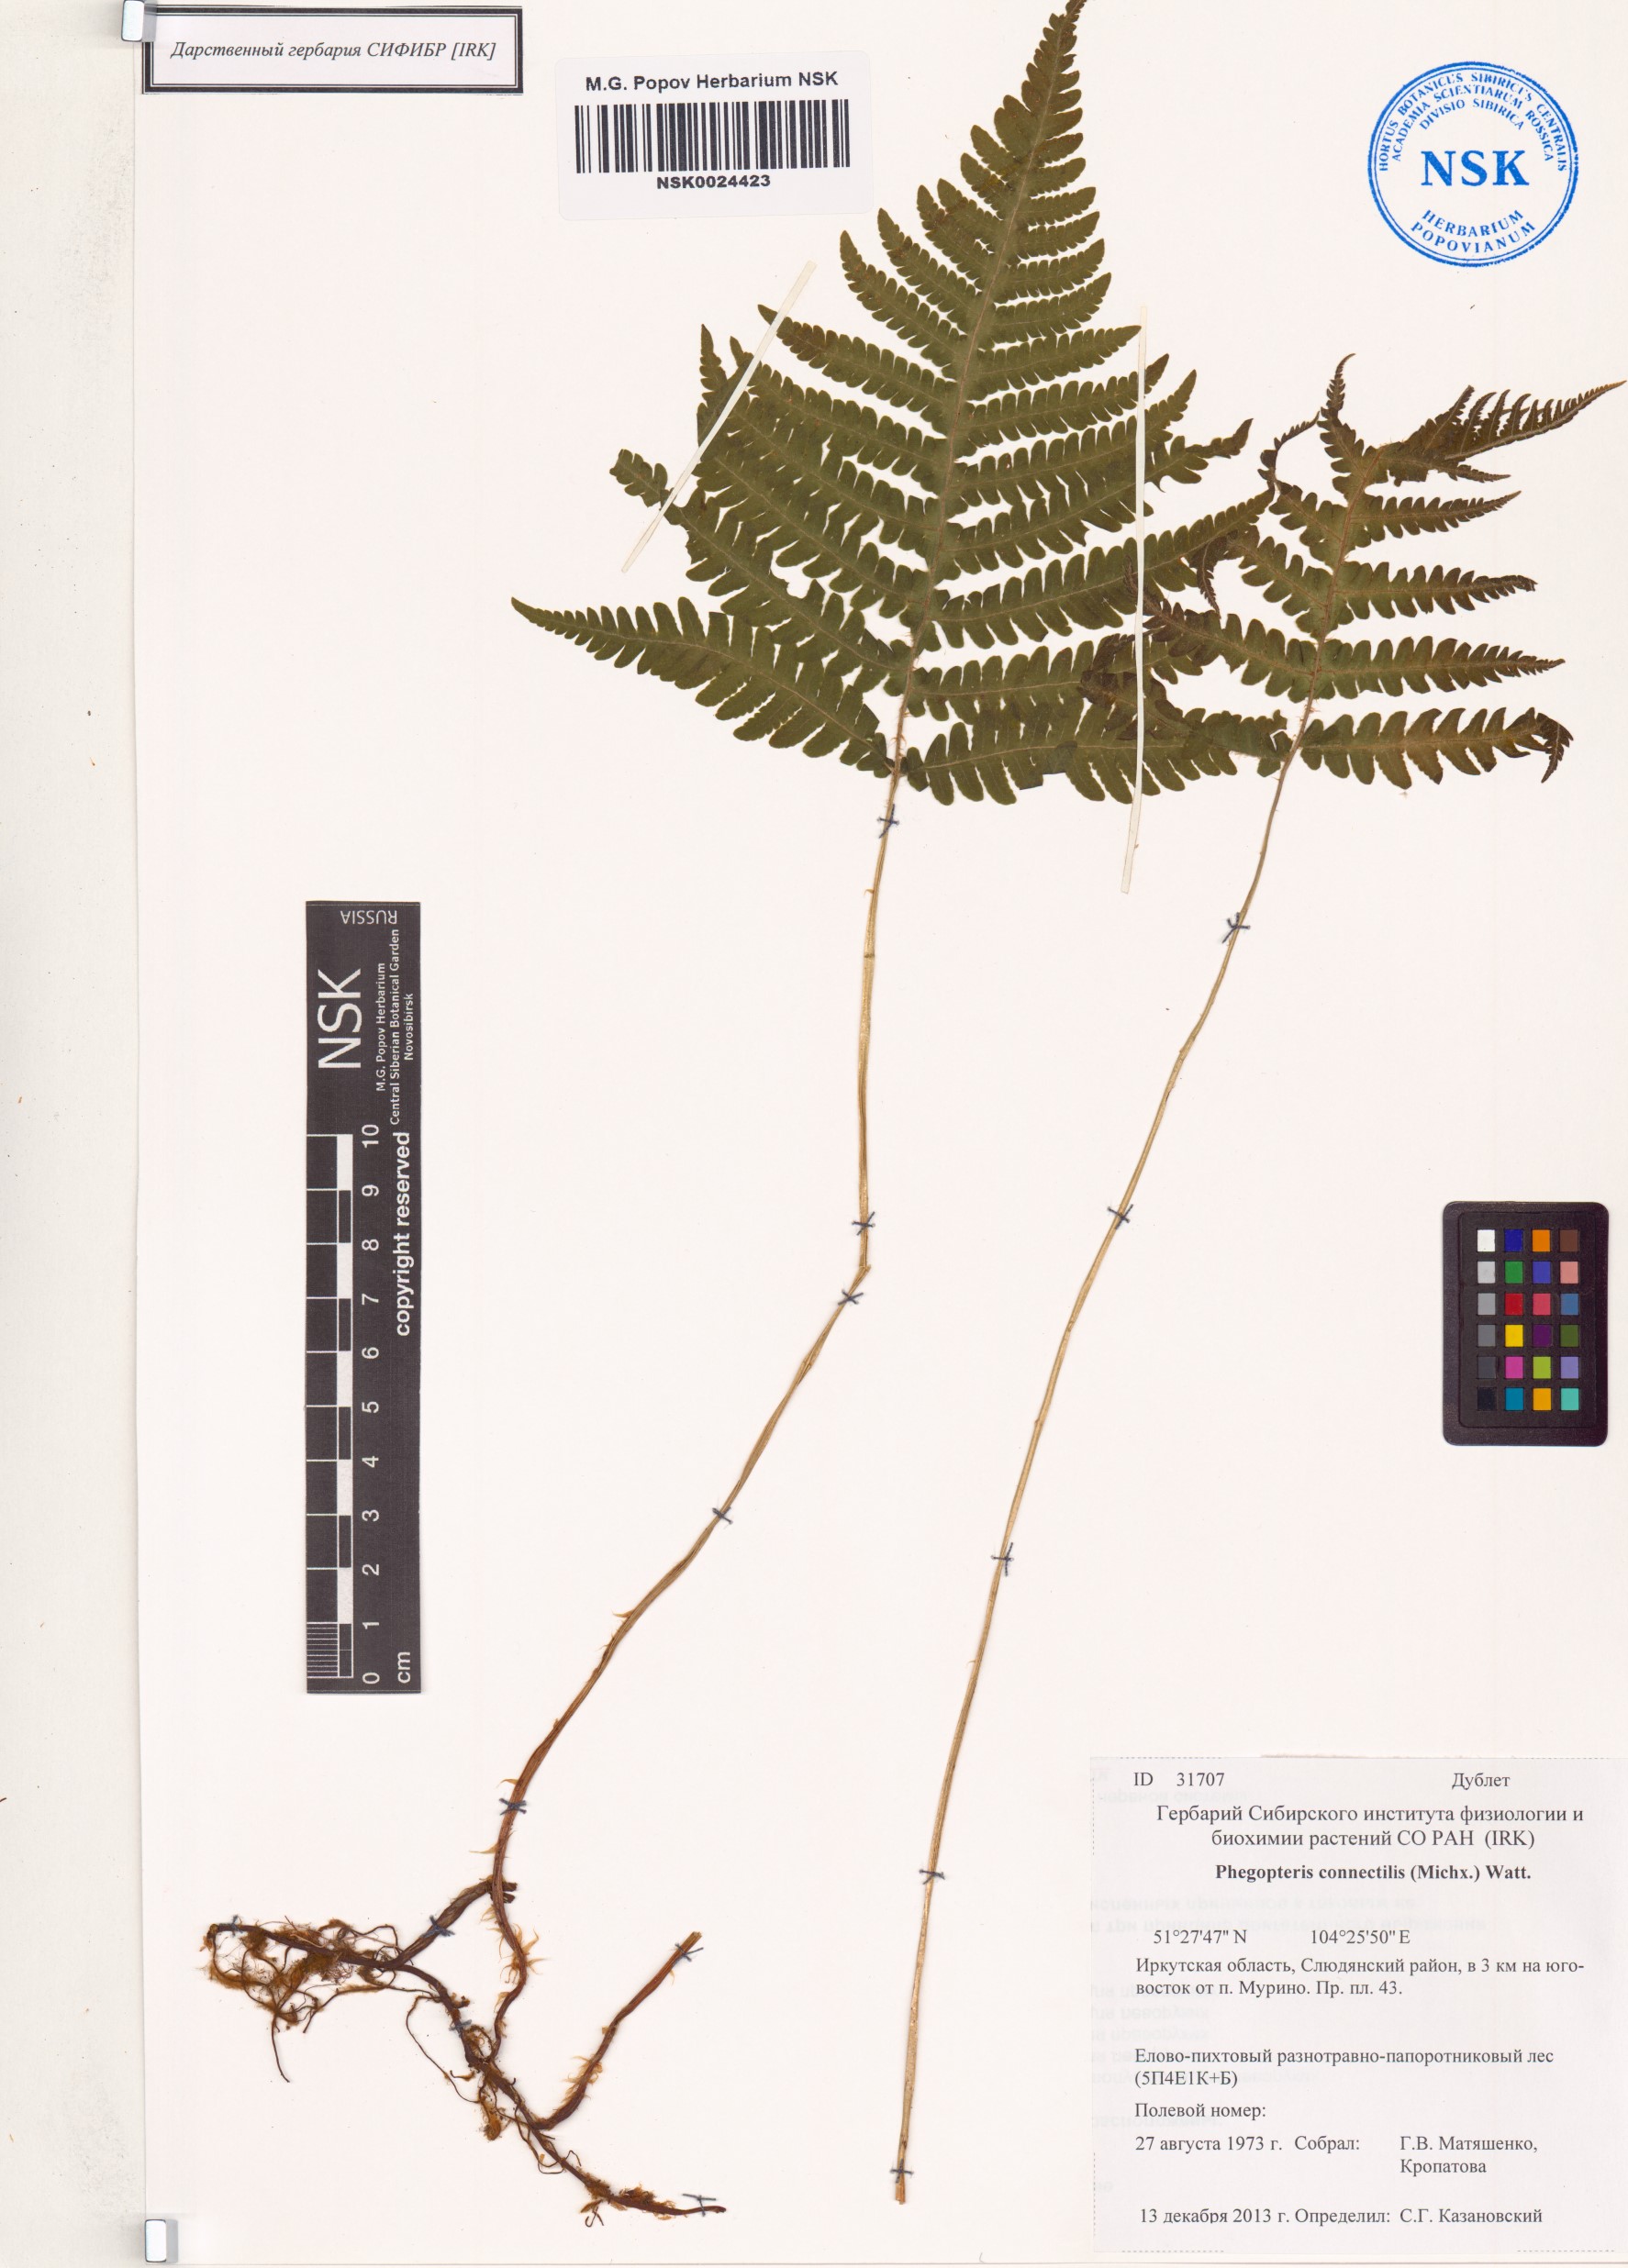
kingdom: Plantae
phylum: Tracheophyta
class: Polypodiopsida
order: Polypodiales
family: Thelypteridaceae
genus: Phegopteris
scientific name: Phegopteris connectilis
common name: Beech fern
